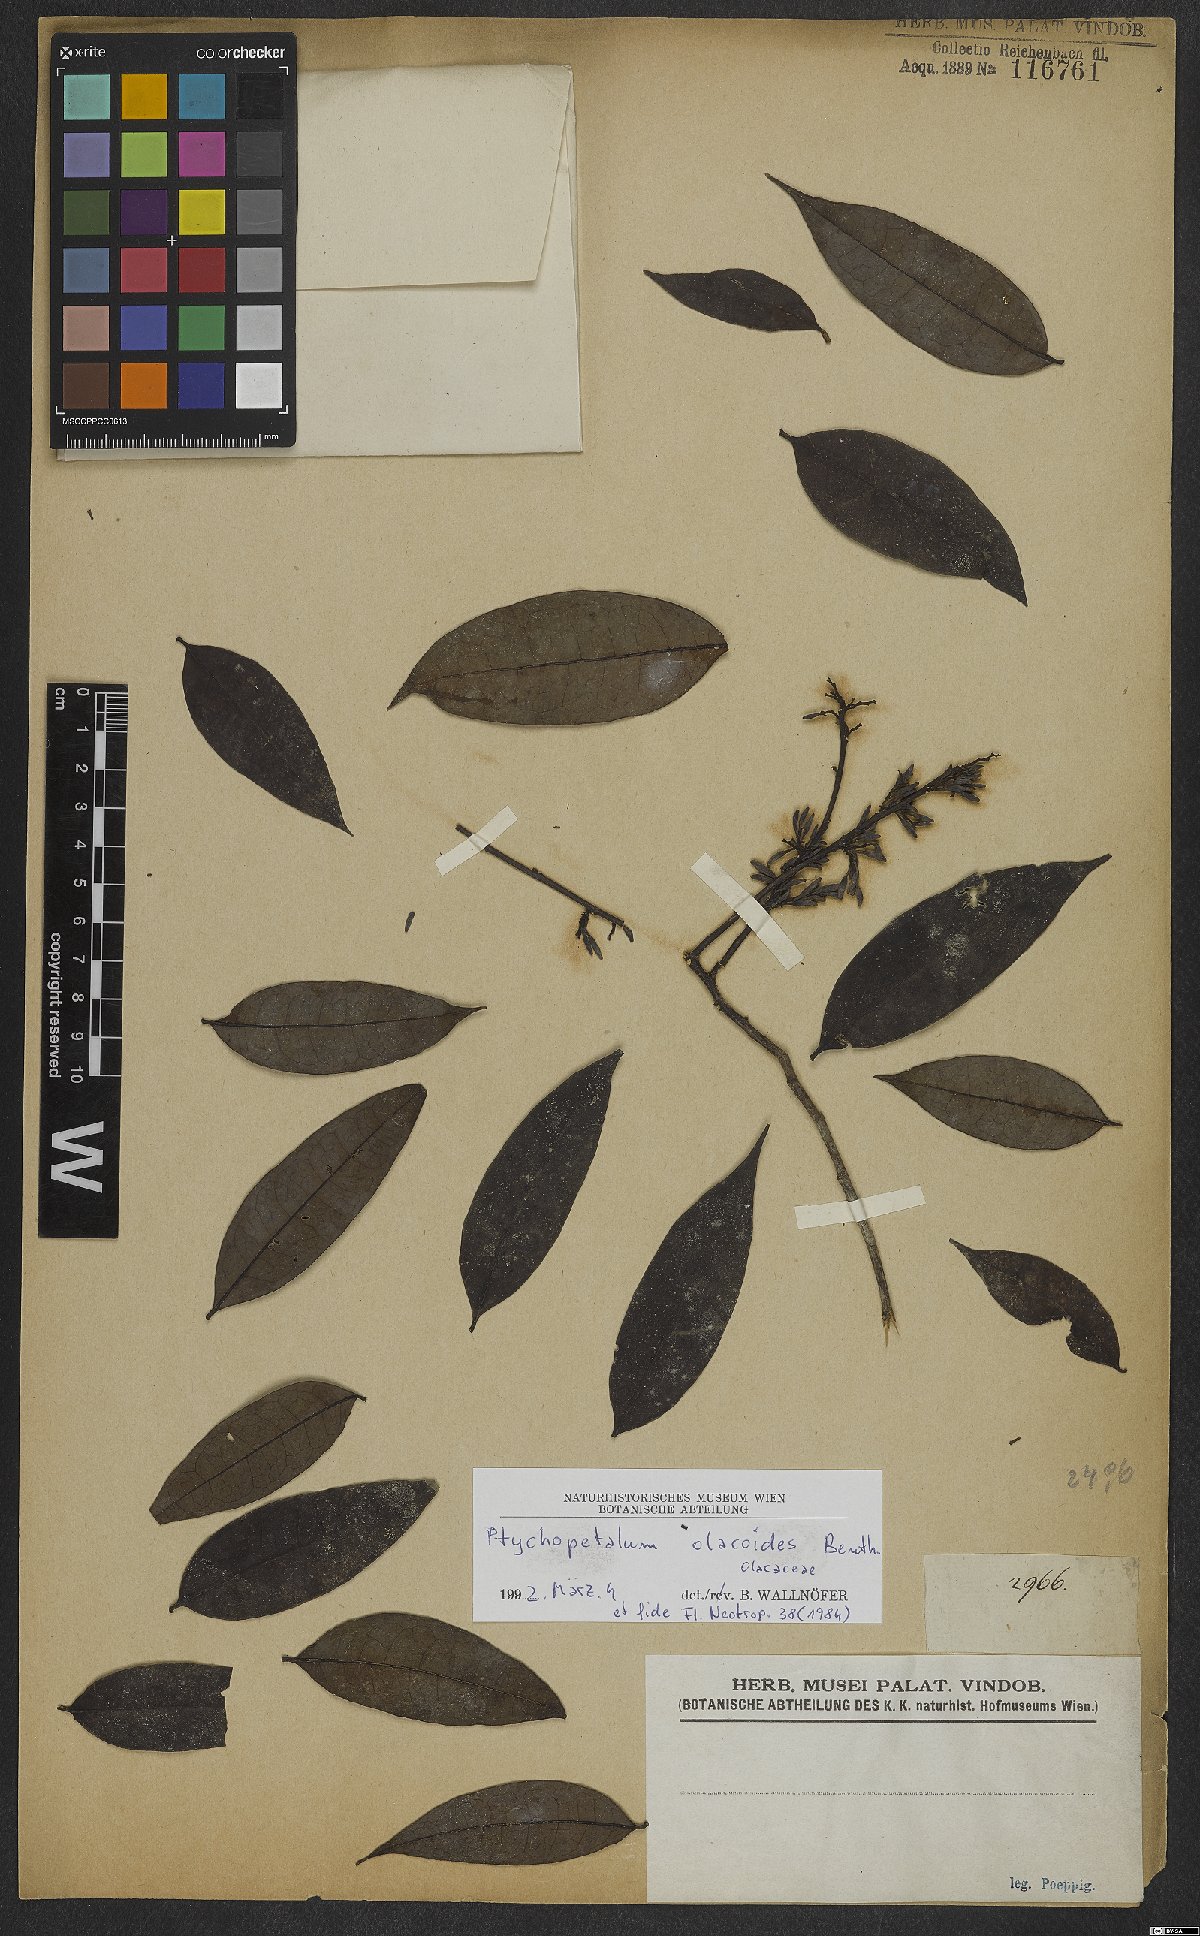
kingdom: Plantae
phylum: Tracheophyta
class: Magnoliopsida
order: Santalales
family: Olacaceae
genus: Ptychopetalum
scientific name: Ptychopetalum olacoides
